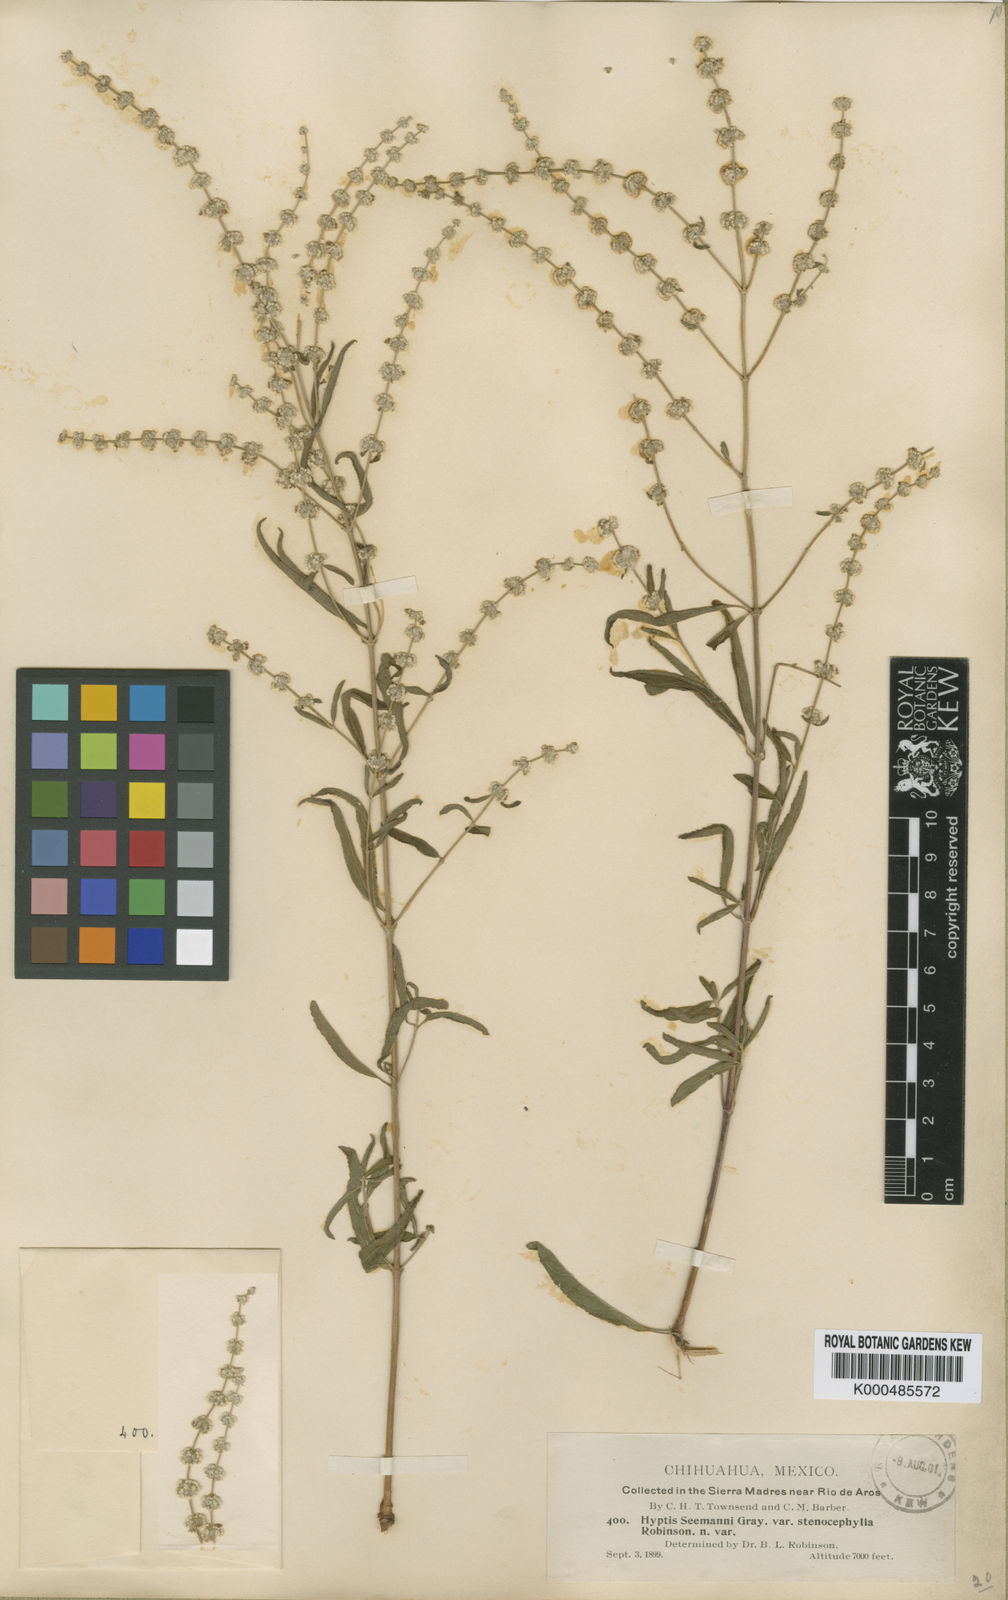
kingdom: Plantae
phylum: Tracheophyta
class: Magnoliopsida
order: Lamiales
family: Lamiaceae
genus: Asterohyptis
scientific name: Asterohyptis seemannii
